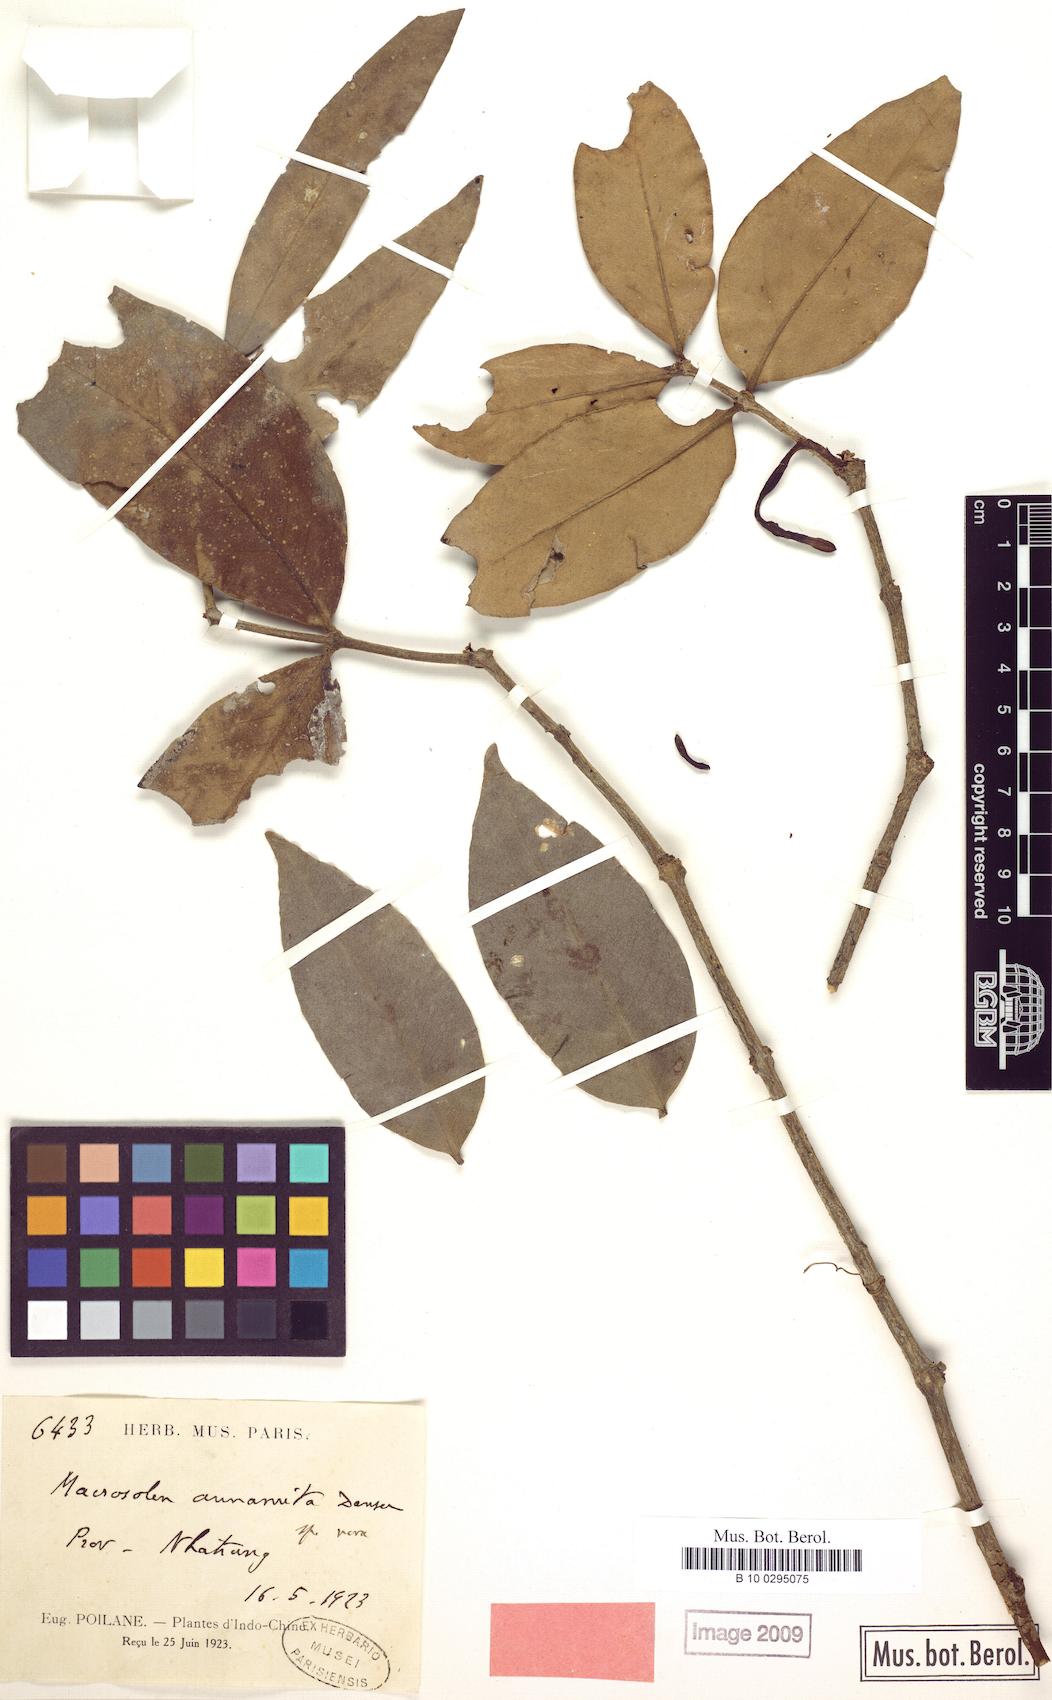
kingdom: Plantae
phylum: Tracheophyta
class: Magnoliopsida
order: Santalales
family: Loranthaceae
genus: Macrosolen
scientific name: Macrosolen annamicus
